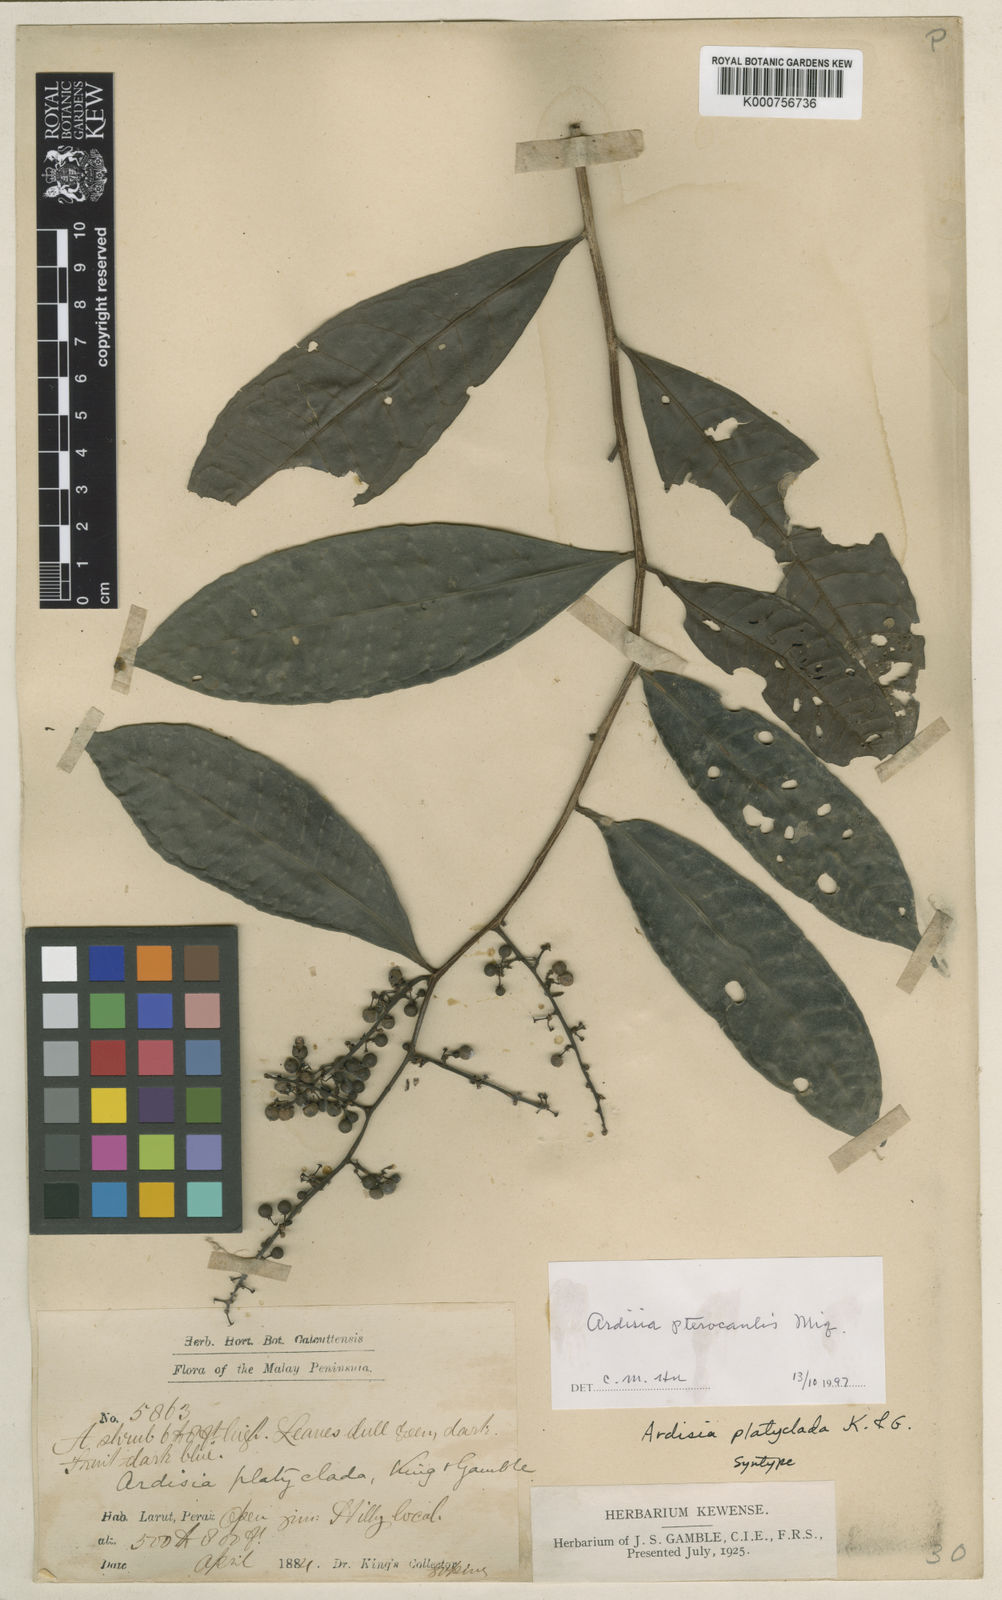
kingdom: Plantae
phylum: Tracheophyta
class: Magnoliopsida
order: Ericales
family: Primulaceae
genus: Ardisia
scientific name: Ardisia pterocaulis
